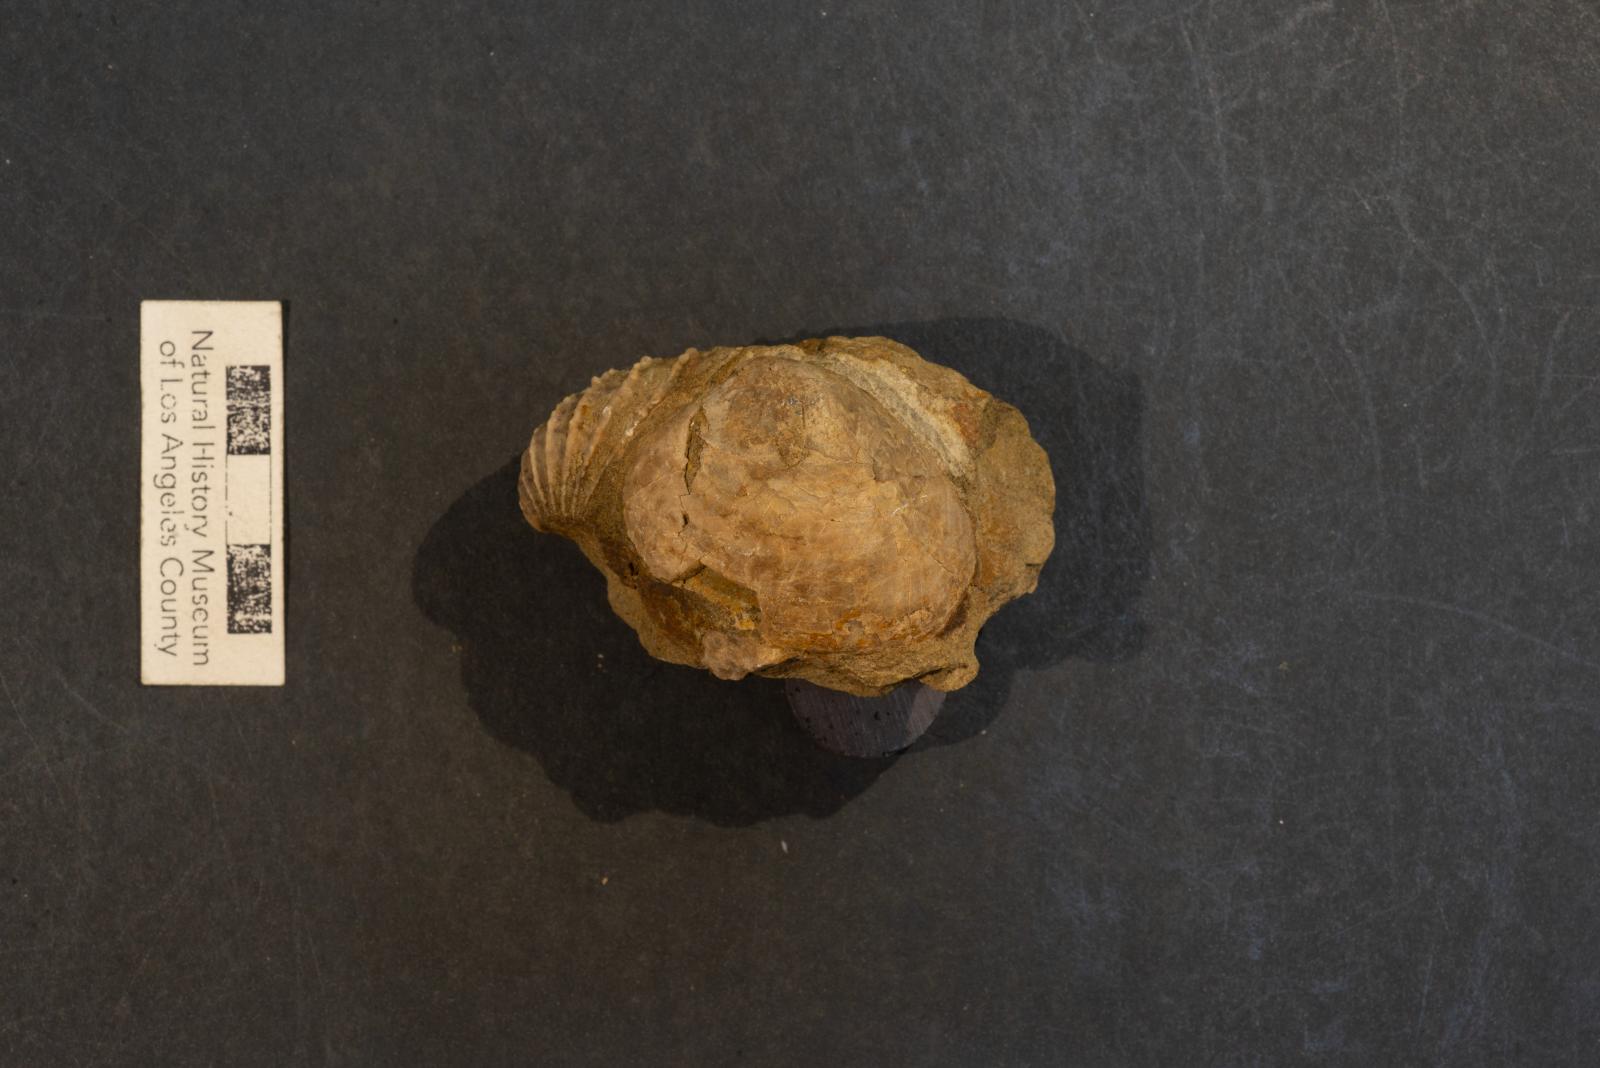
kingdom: Animalia
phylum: Mollusca
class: Bivalvia
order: Venerida
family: Veneridae
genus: Paraesa
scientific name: Paraesa Flaventia zeta
